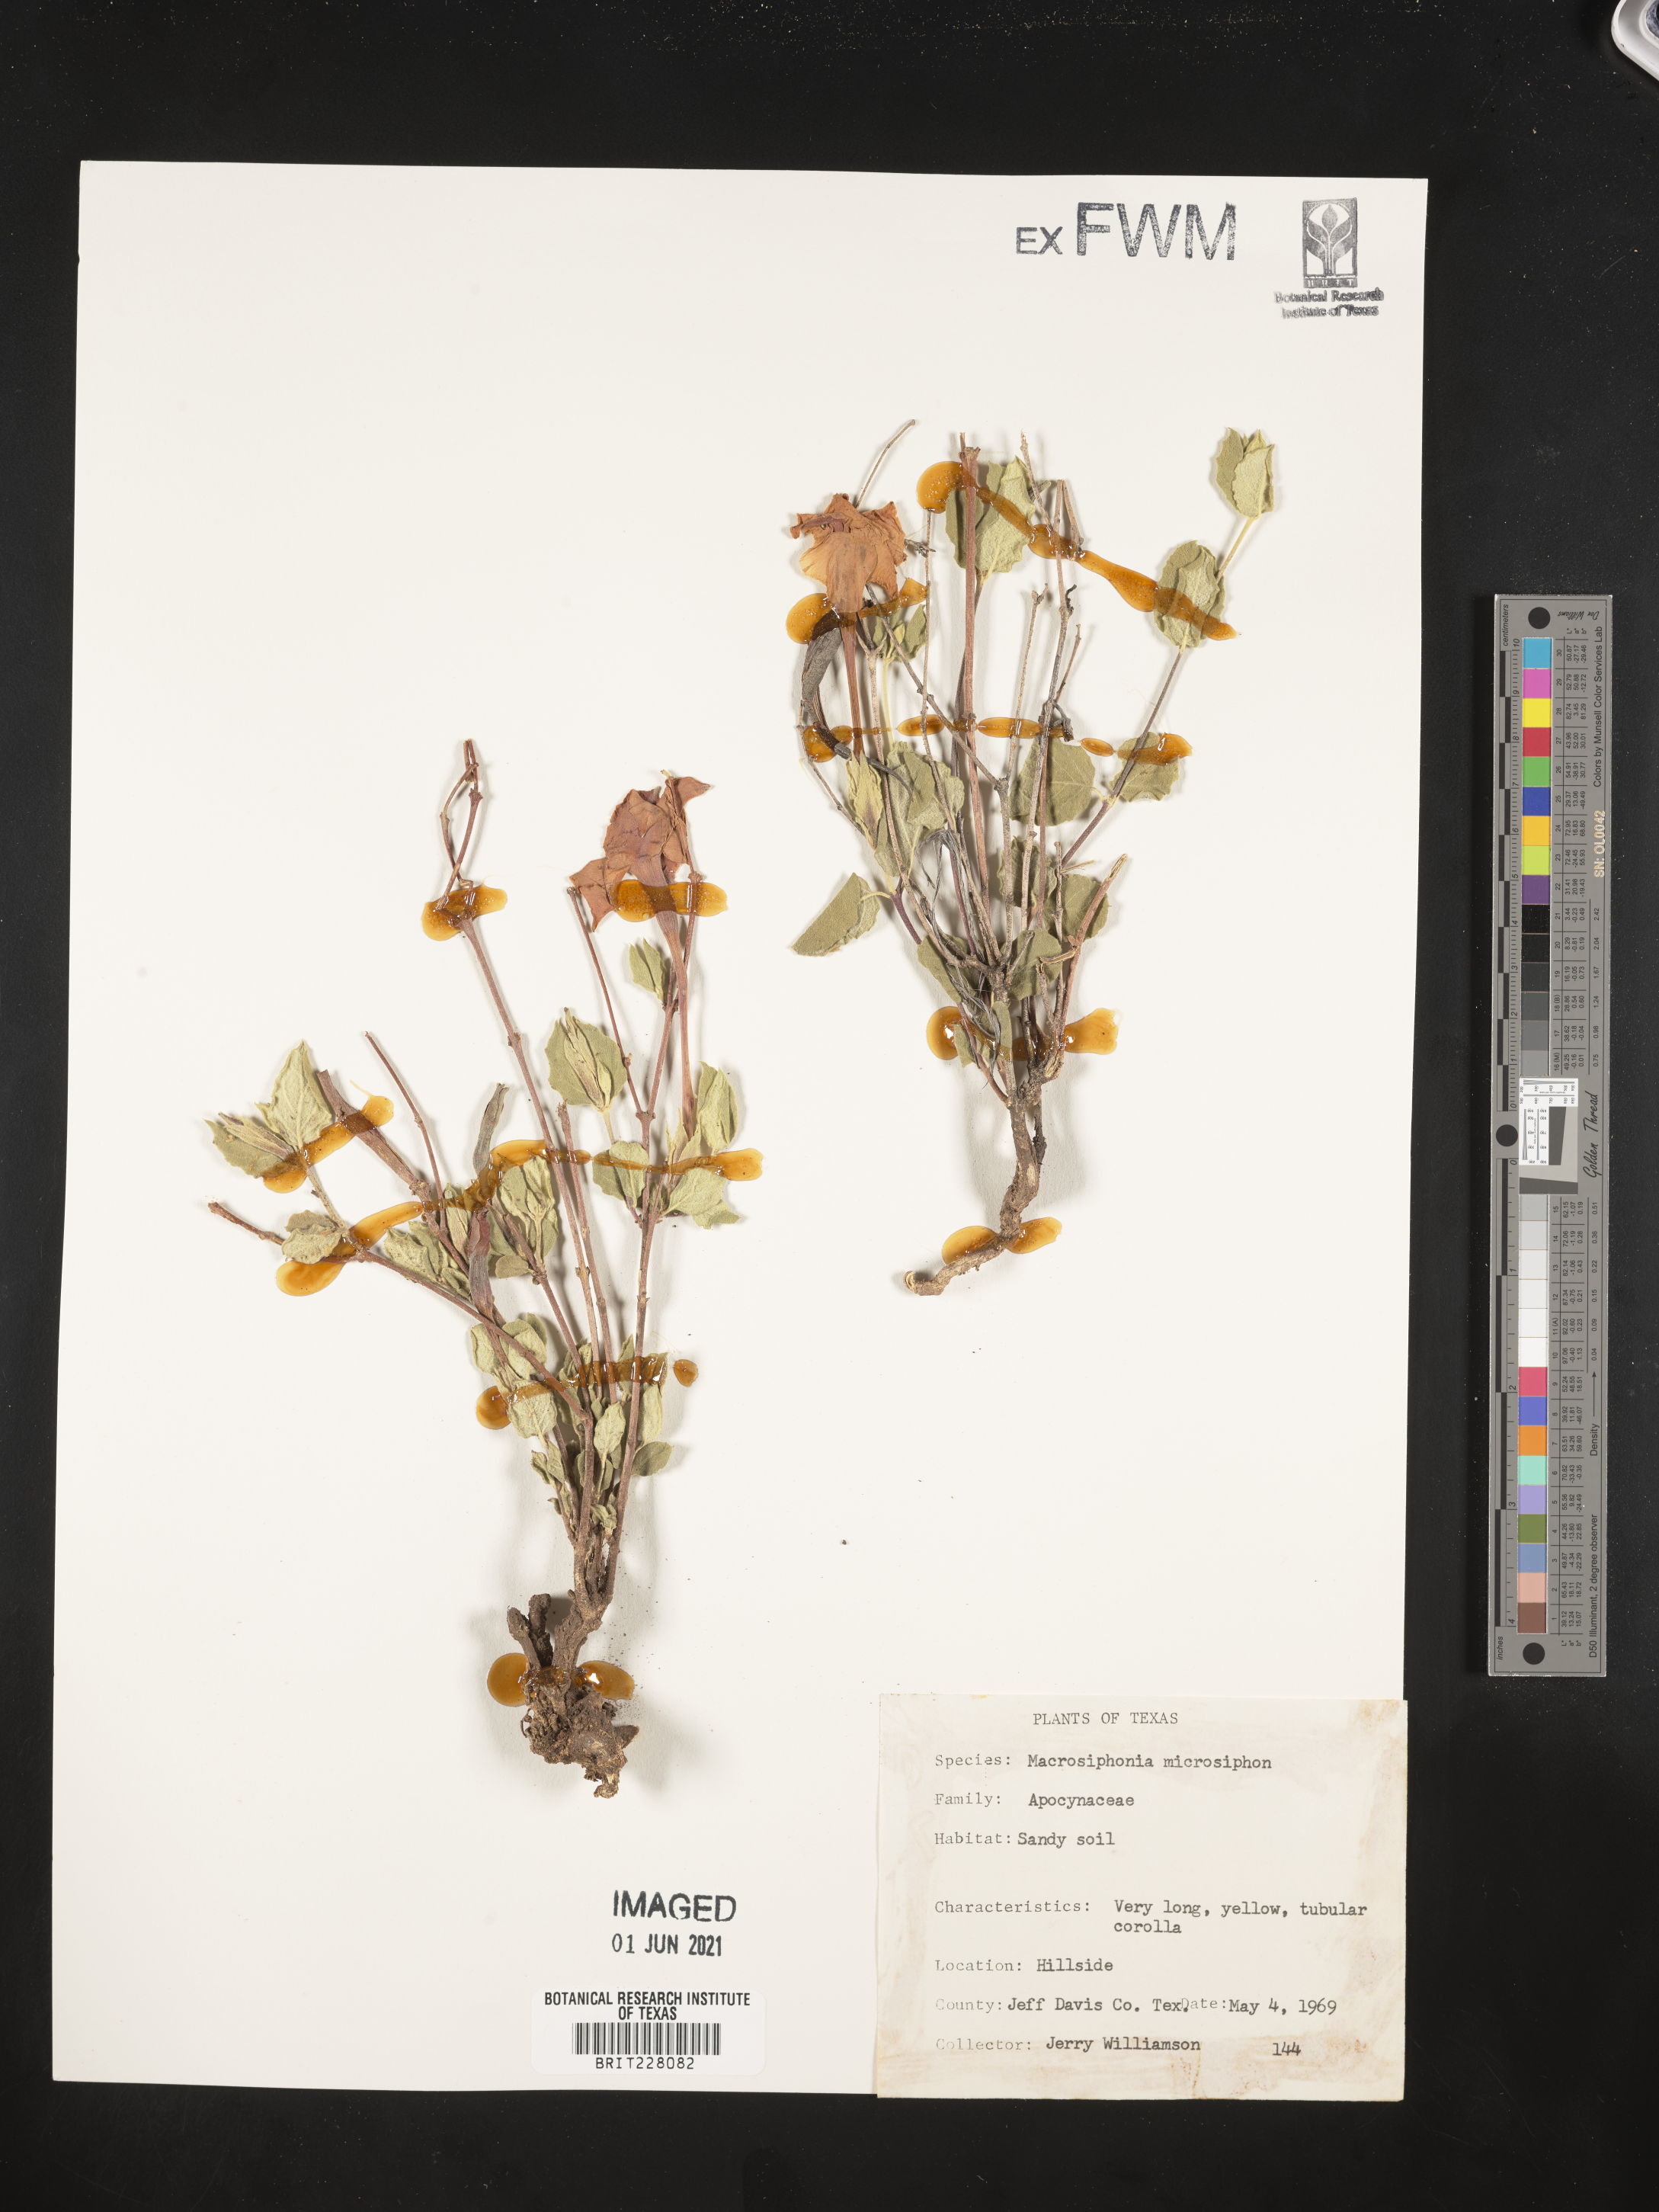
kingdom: Plantae
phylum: Tracheophyta
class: Magnoliopsida
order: Gentianales
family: Apocynaceae
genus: Mandevilla
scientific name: Mandevilla macrosiphon
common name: Plateau rocktrumpet
